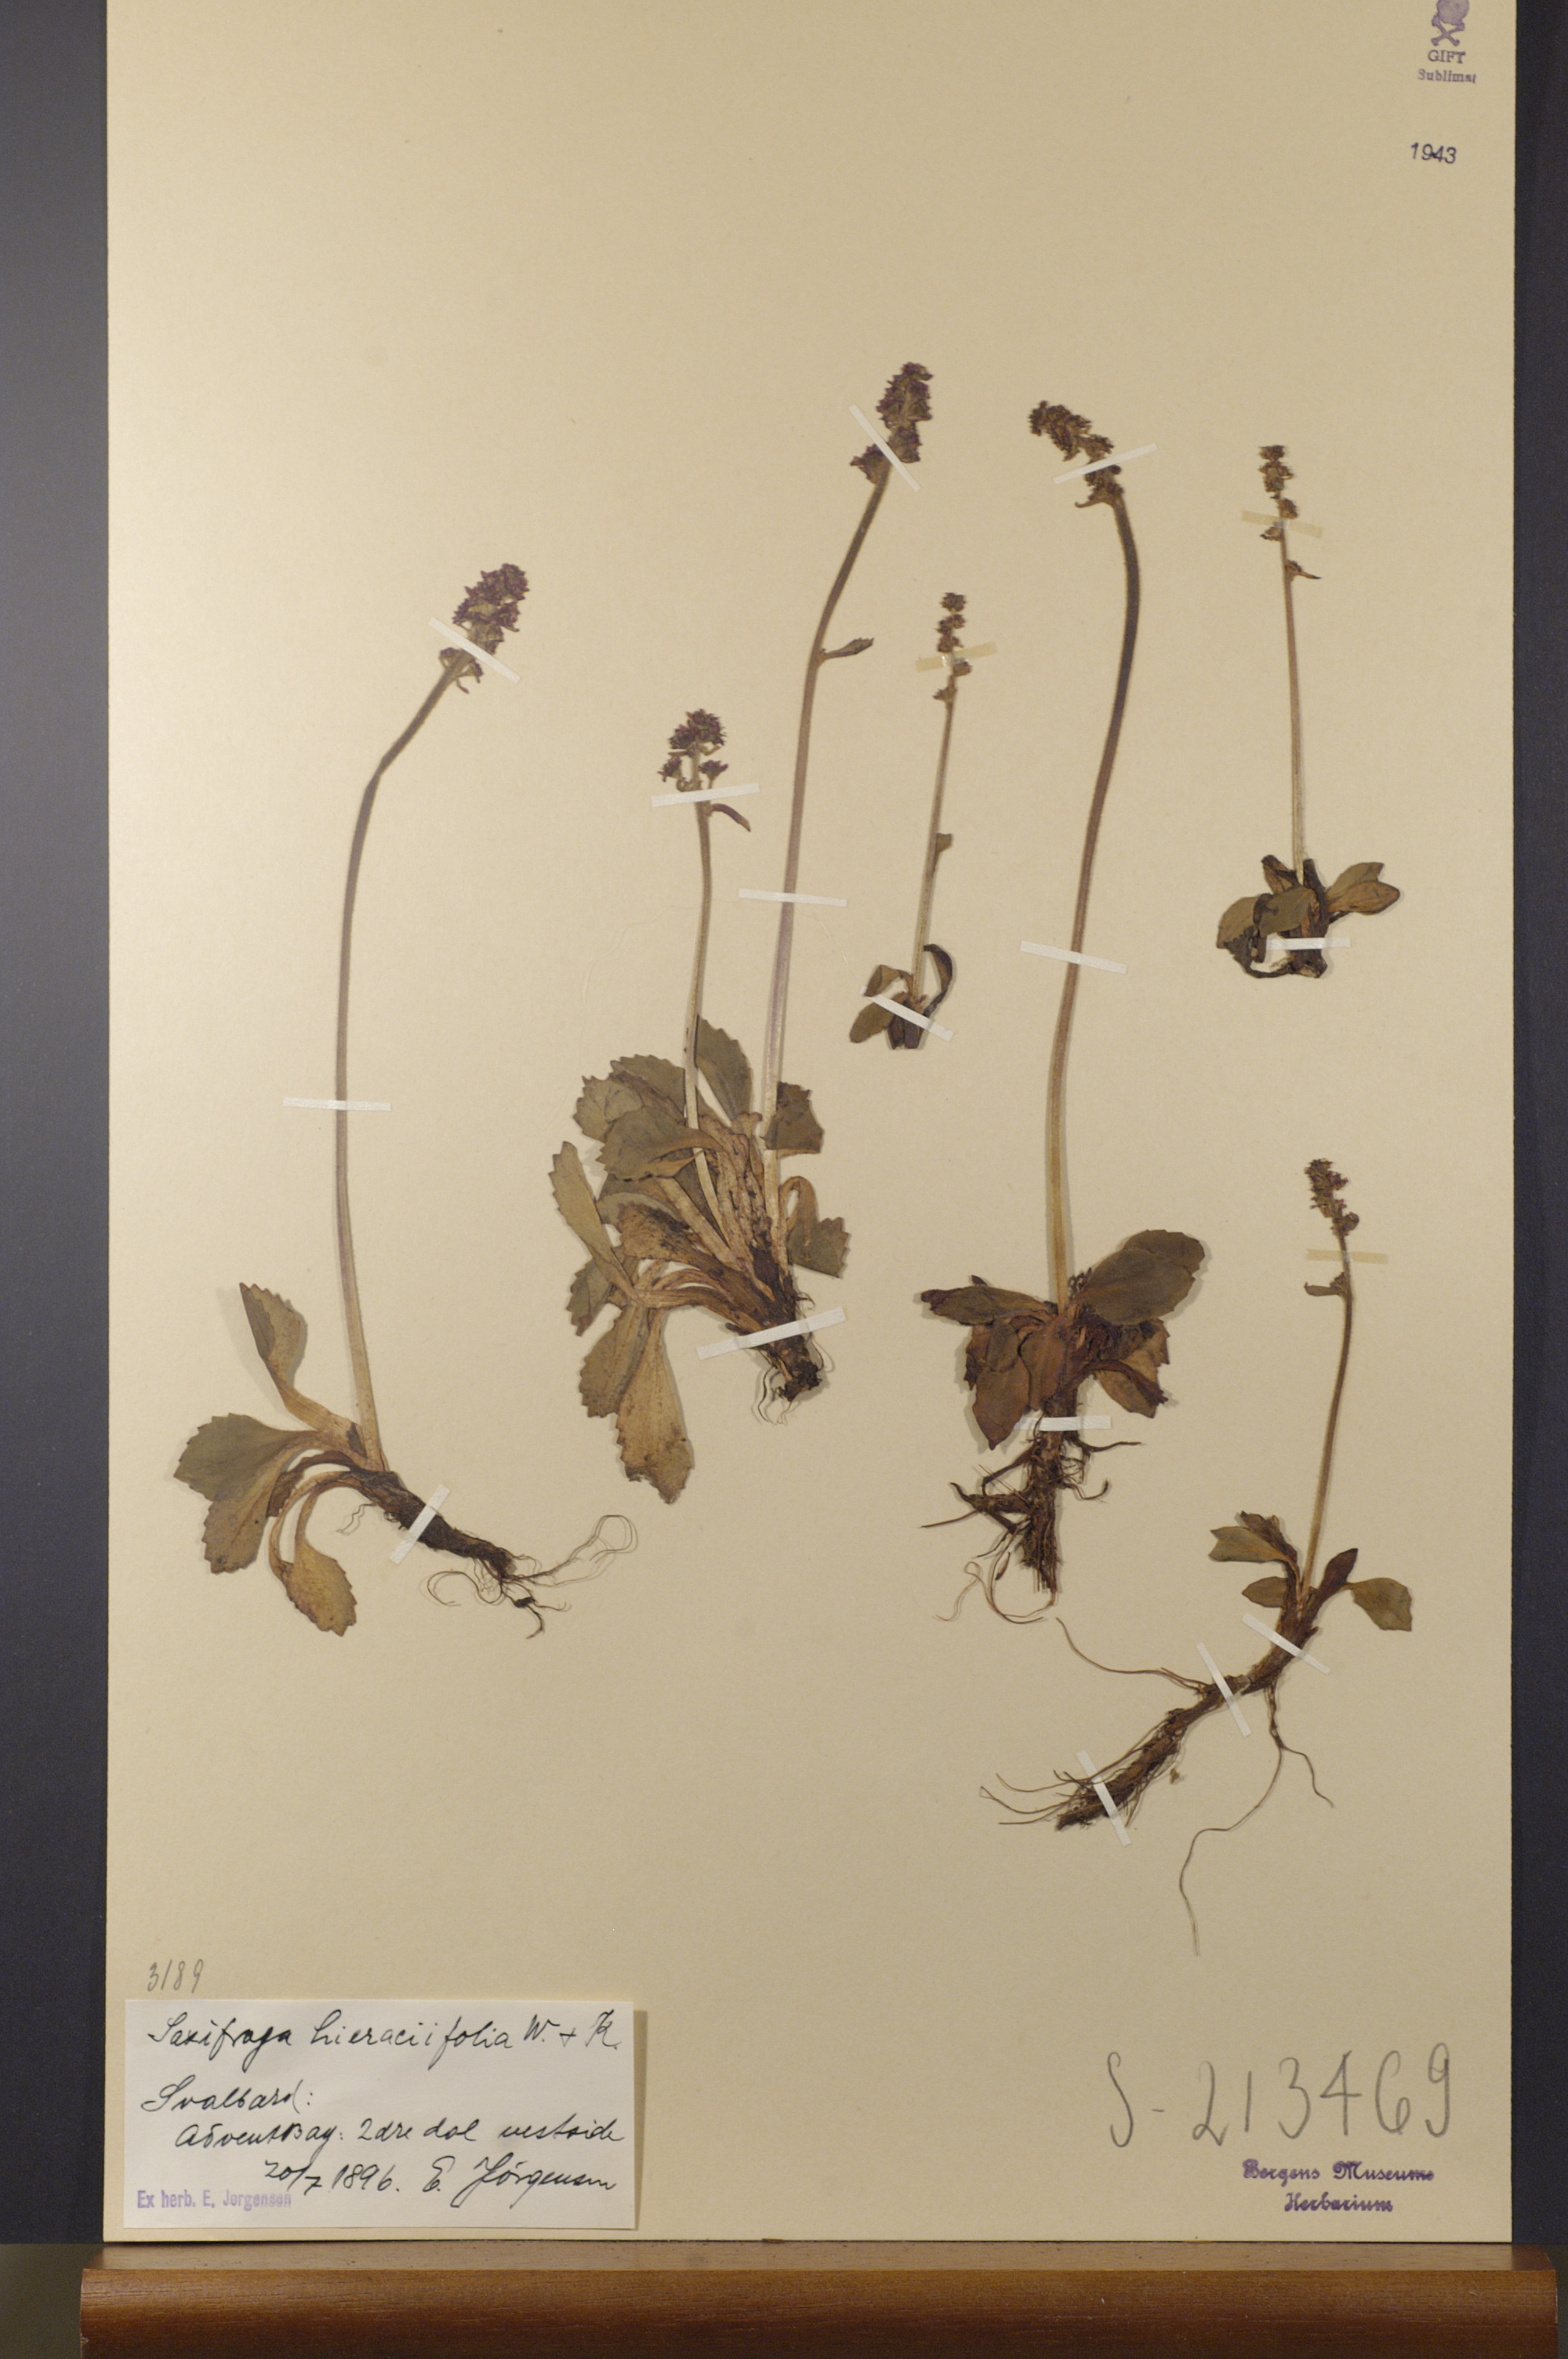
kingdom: Plantae
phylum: Tracheophyta
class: Magnoliopsida
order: Saxifragales
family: Saxifragaceae
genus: Micranthes
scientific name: Micranthes hieraciifolia
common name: Hawkweed-leaved saxifrage
